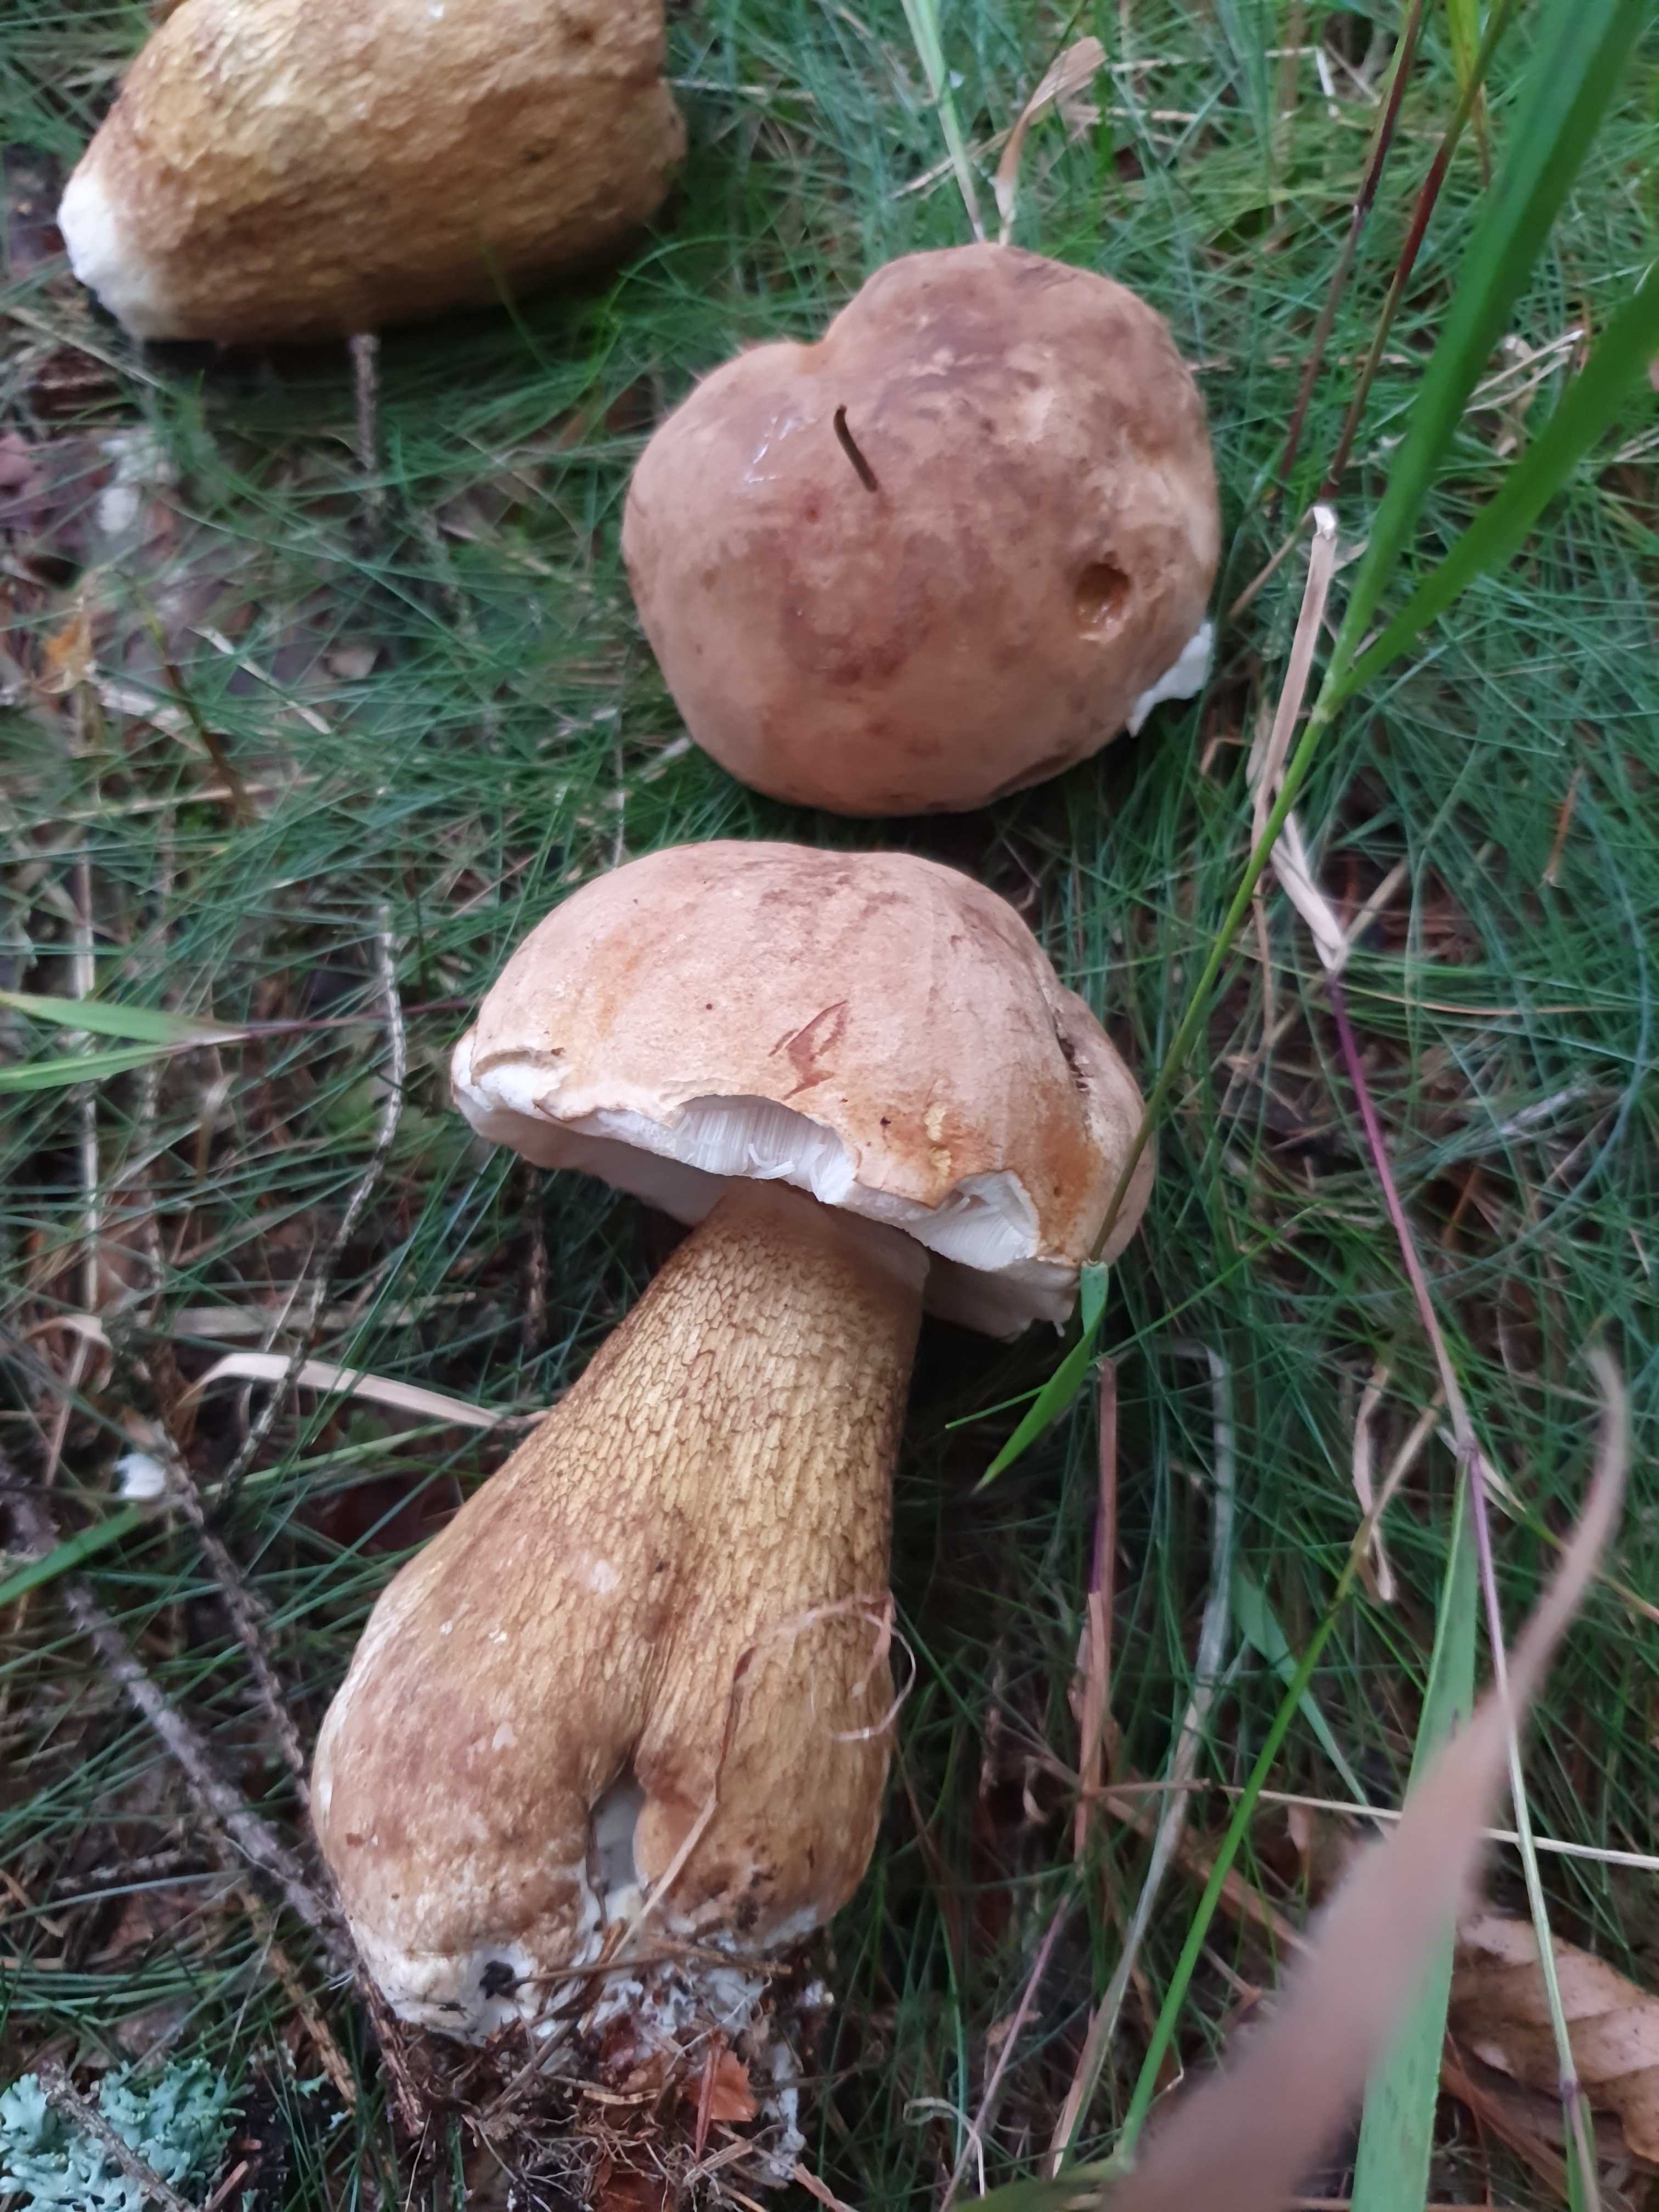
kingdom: Fungi
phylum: Basidiomycota
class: Agaricomycetes
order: Boletales
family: Boletaceae
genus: Tylopilus
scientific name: Tylopilus felleus
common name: galderørhat
